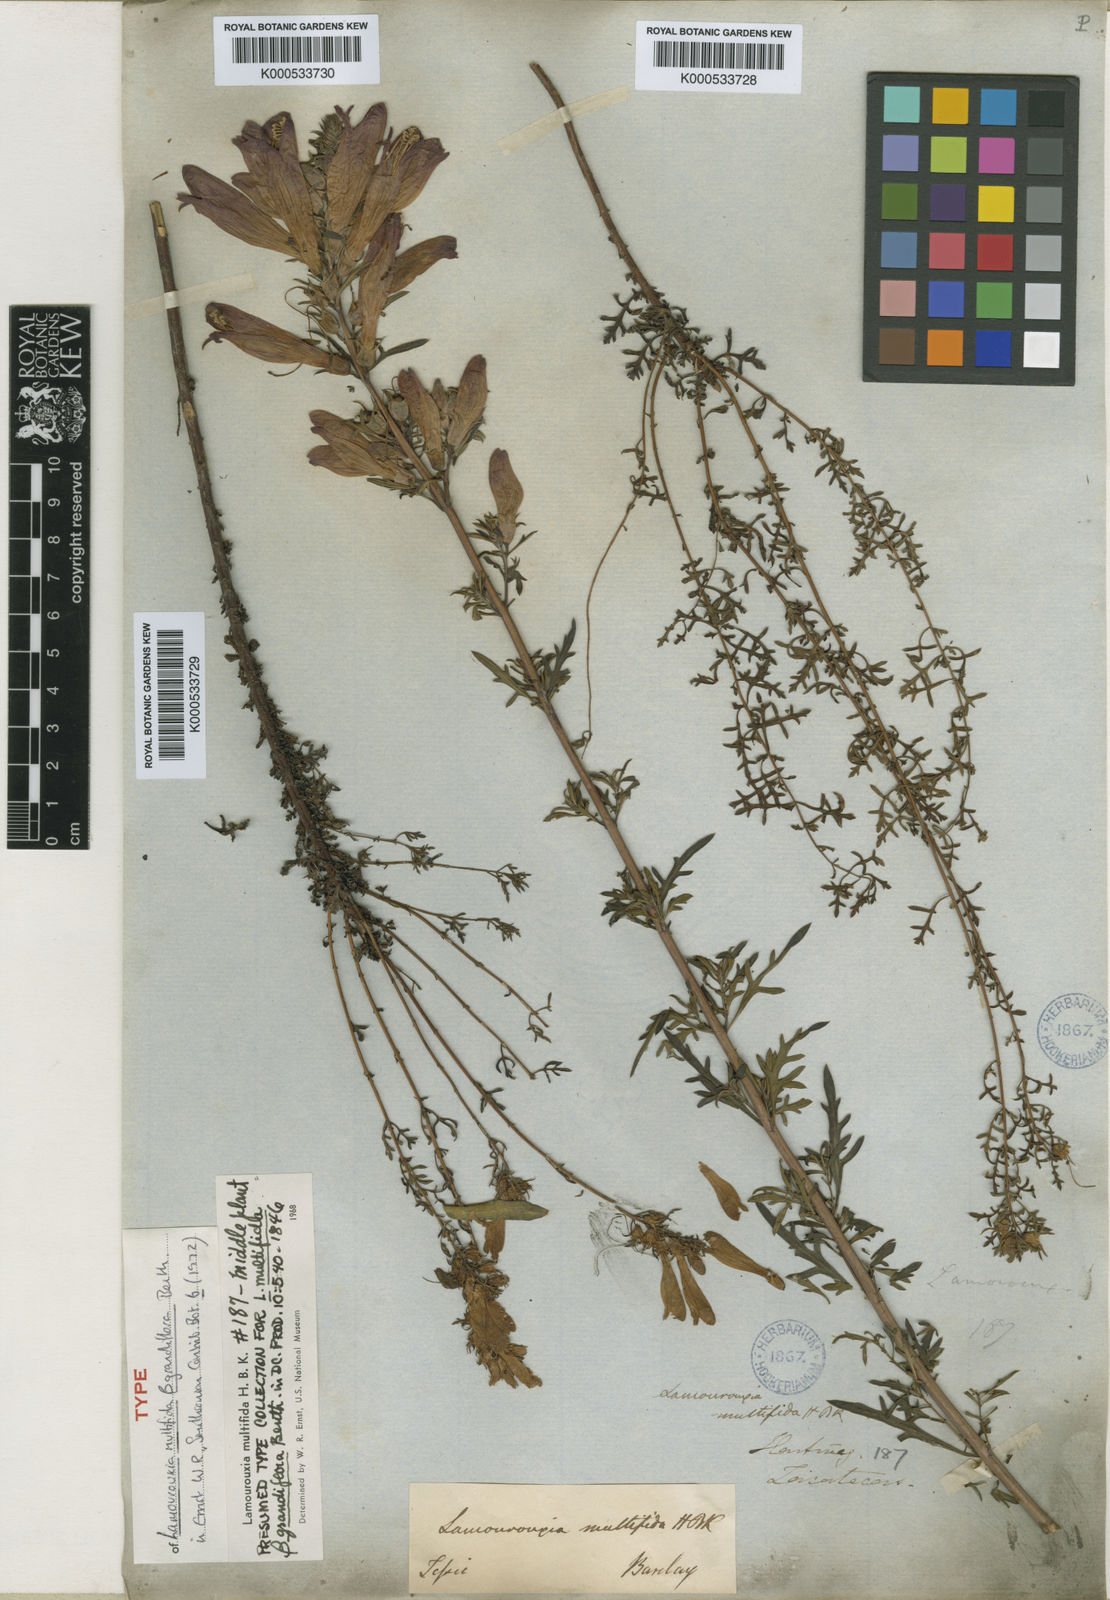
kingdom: Plantae
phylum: Tracheophyta
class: Magnoliopsida
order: Lamiales
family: Orobanchaceae
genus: Lamourouxia
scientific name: Lamourouxia multifida
